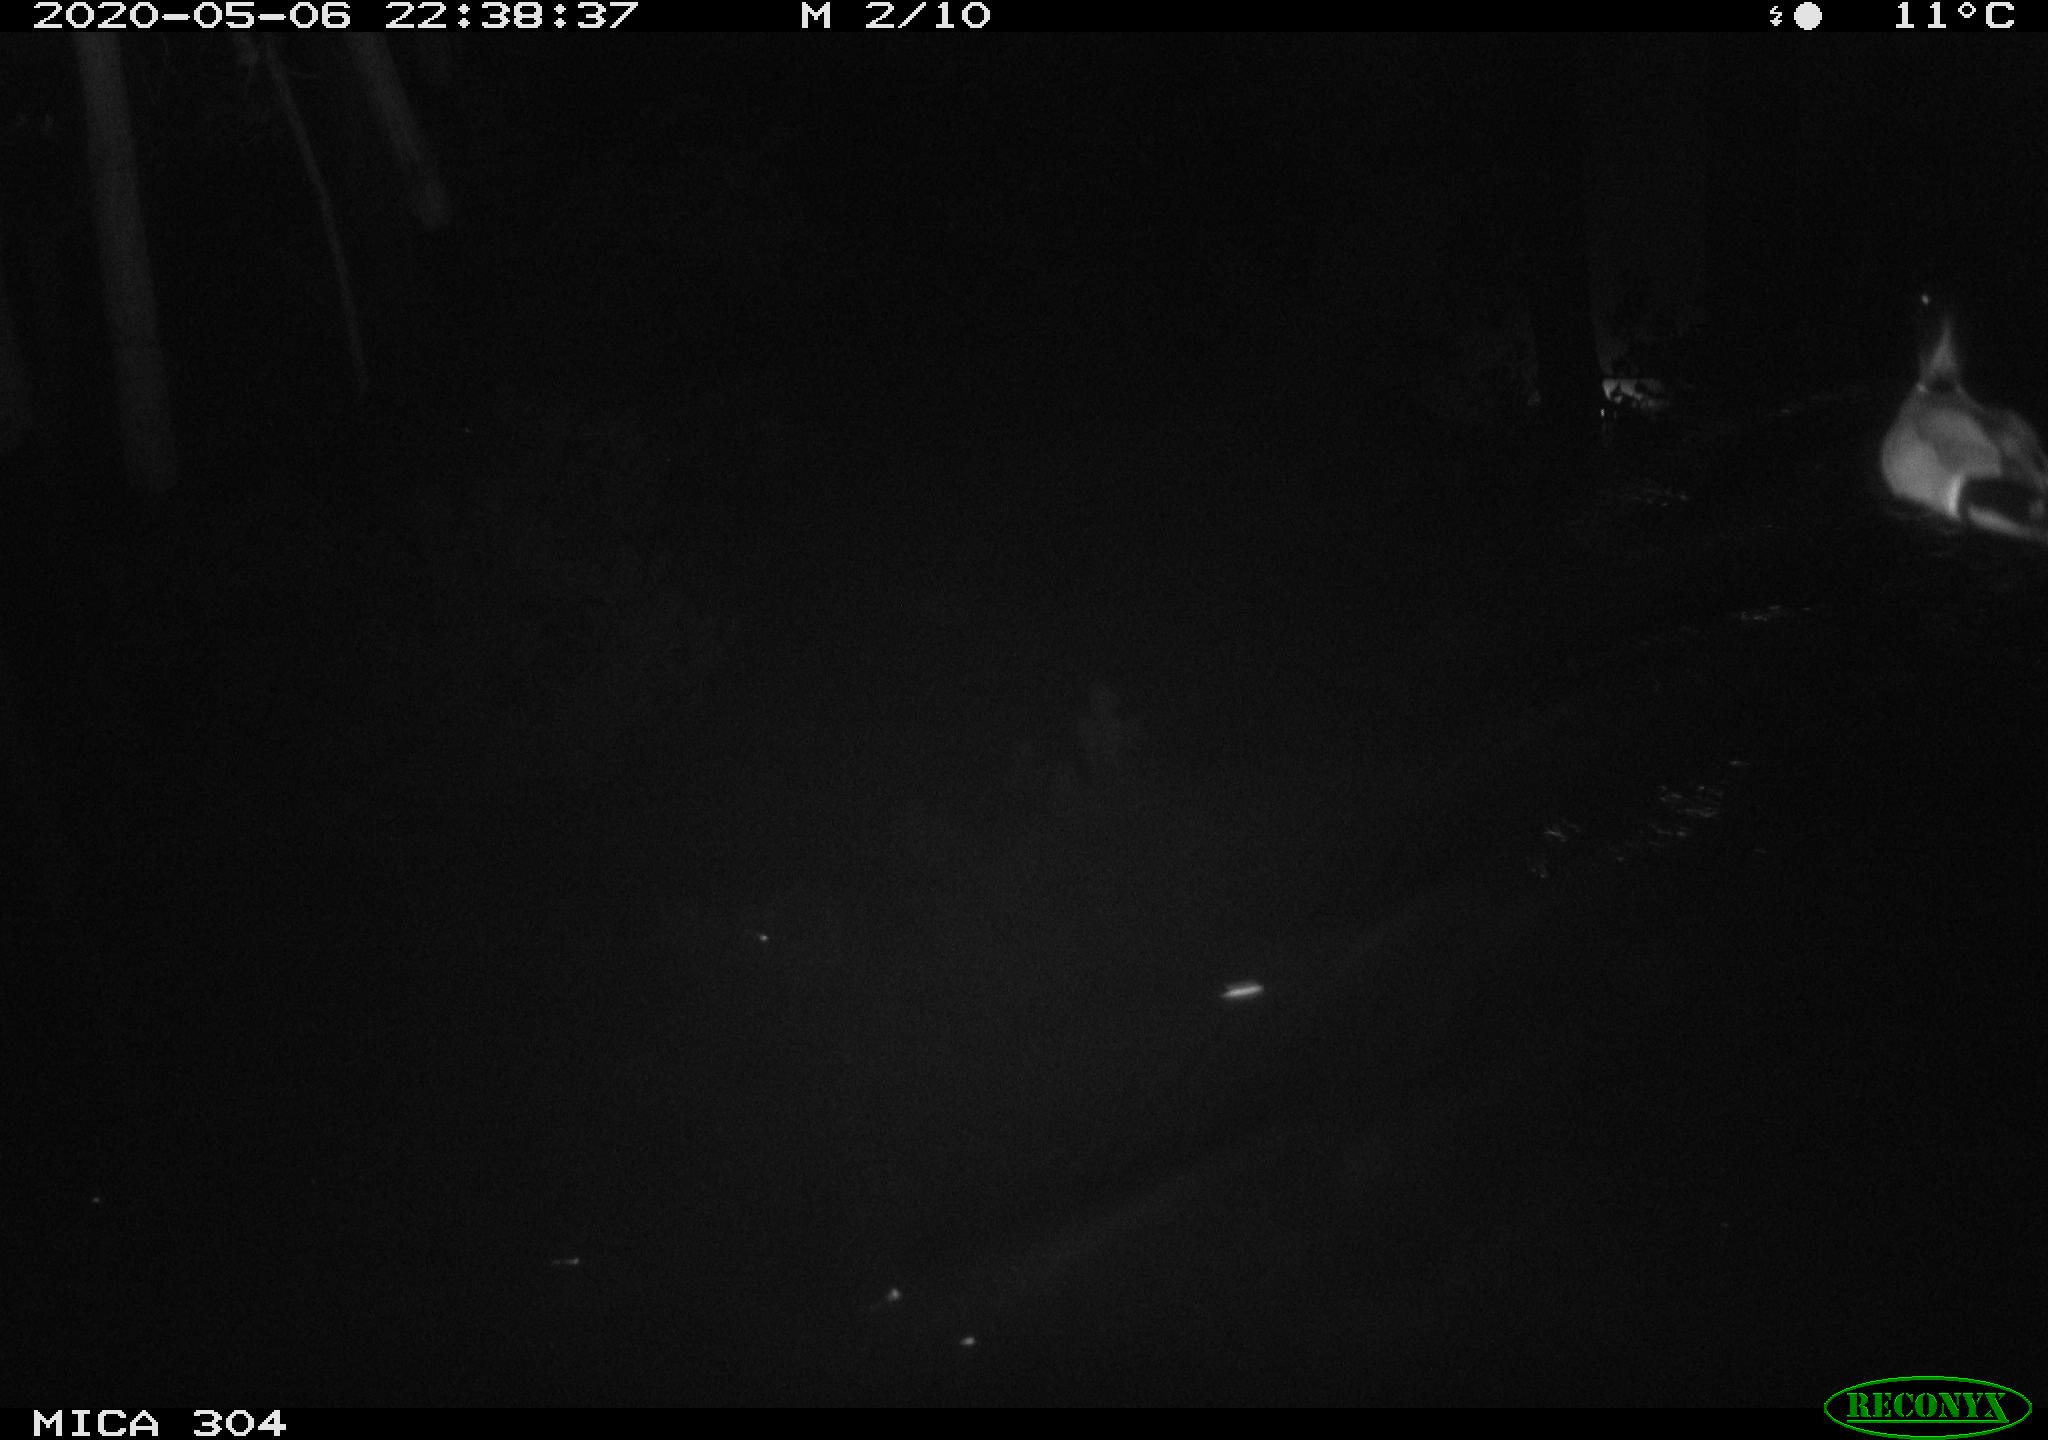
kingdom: Animalia
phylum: Chordata
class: Aves
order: Anseriformes
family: Anatidae
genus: Anas
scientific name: Anas platyrhynchos
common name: Mallard
